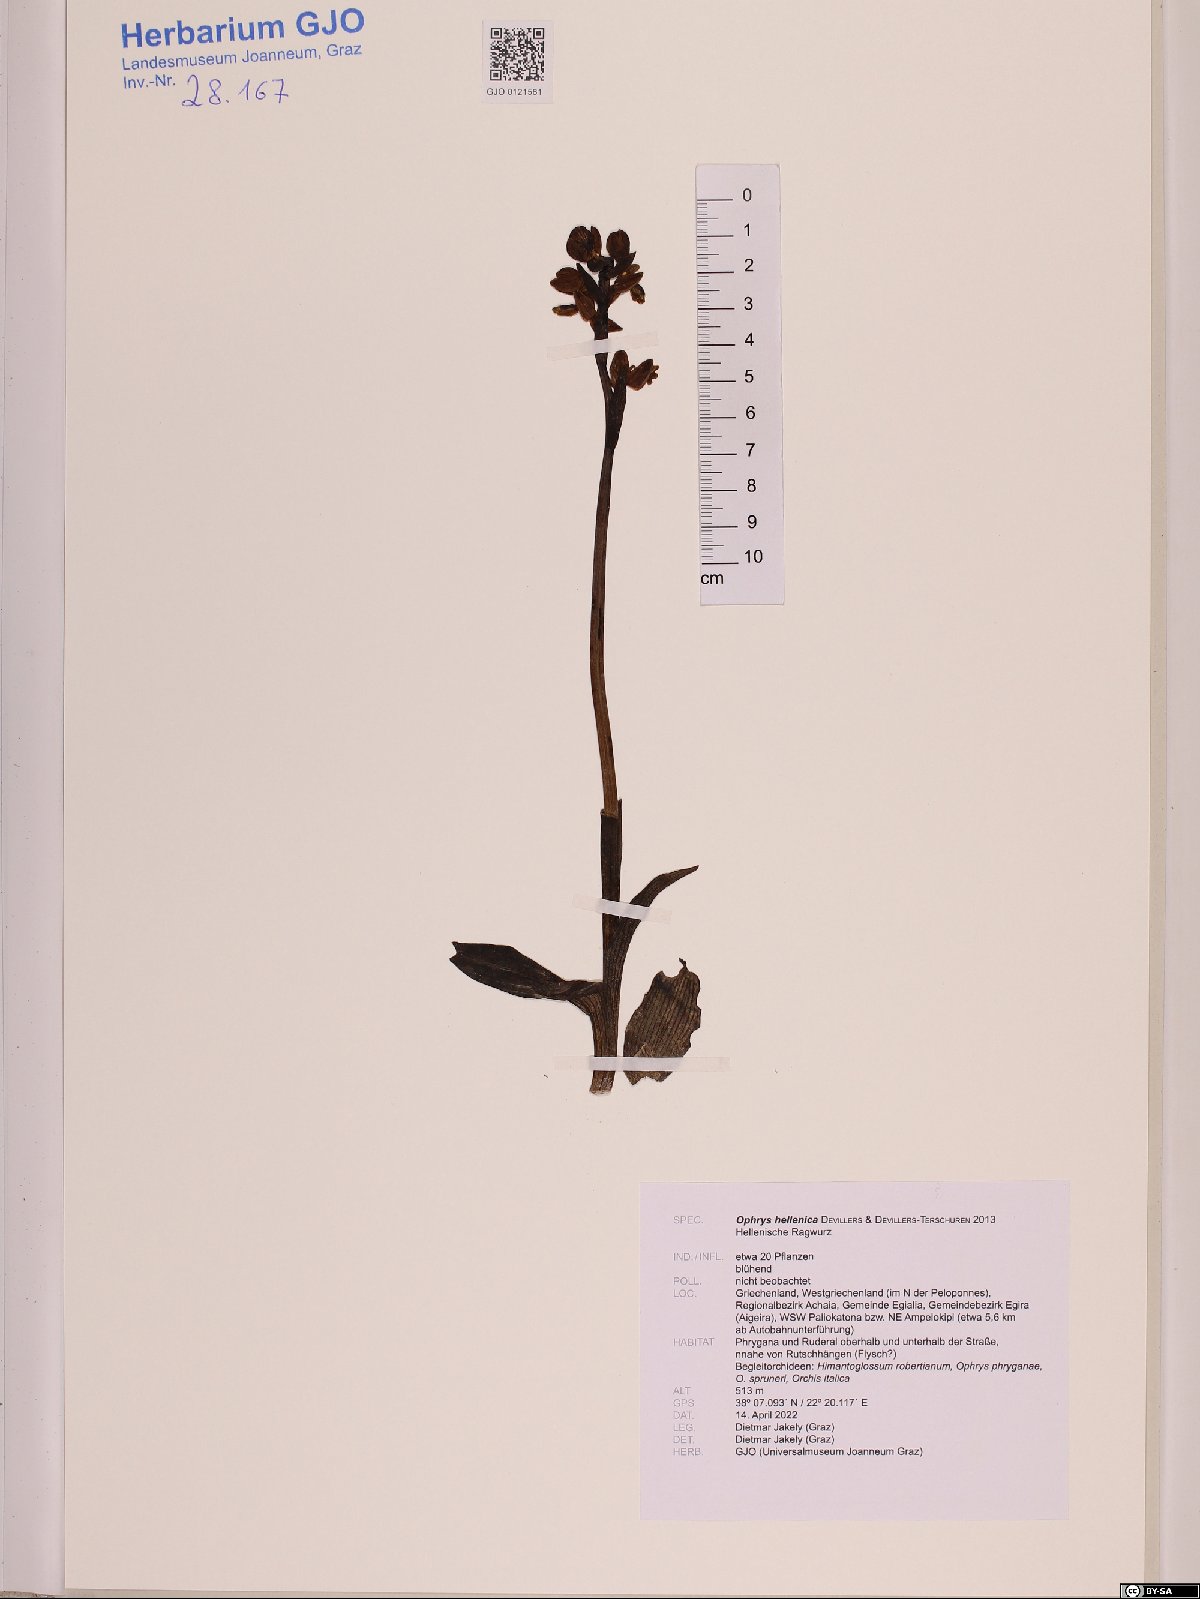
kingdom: Plantae
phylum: Tracheophyta
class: Liliopsida
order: Asparagales
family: Orchidaceae
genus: Ophrys
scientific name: Ophrys lutea
